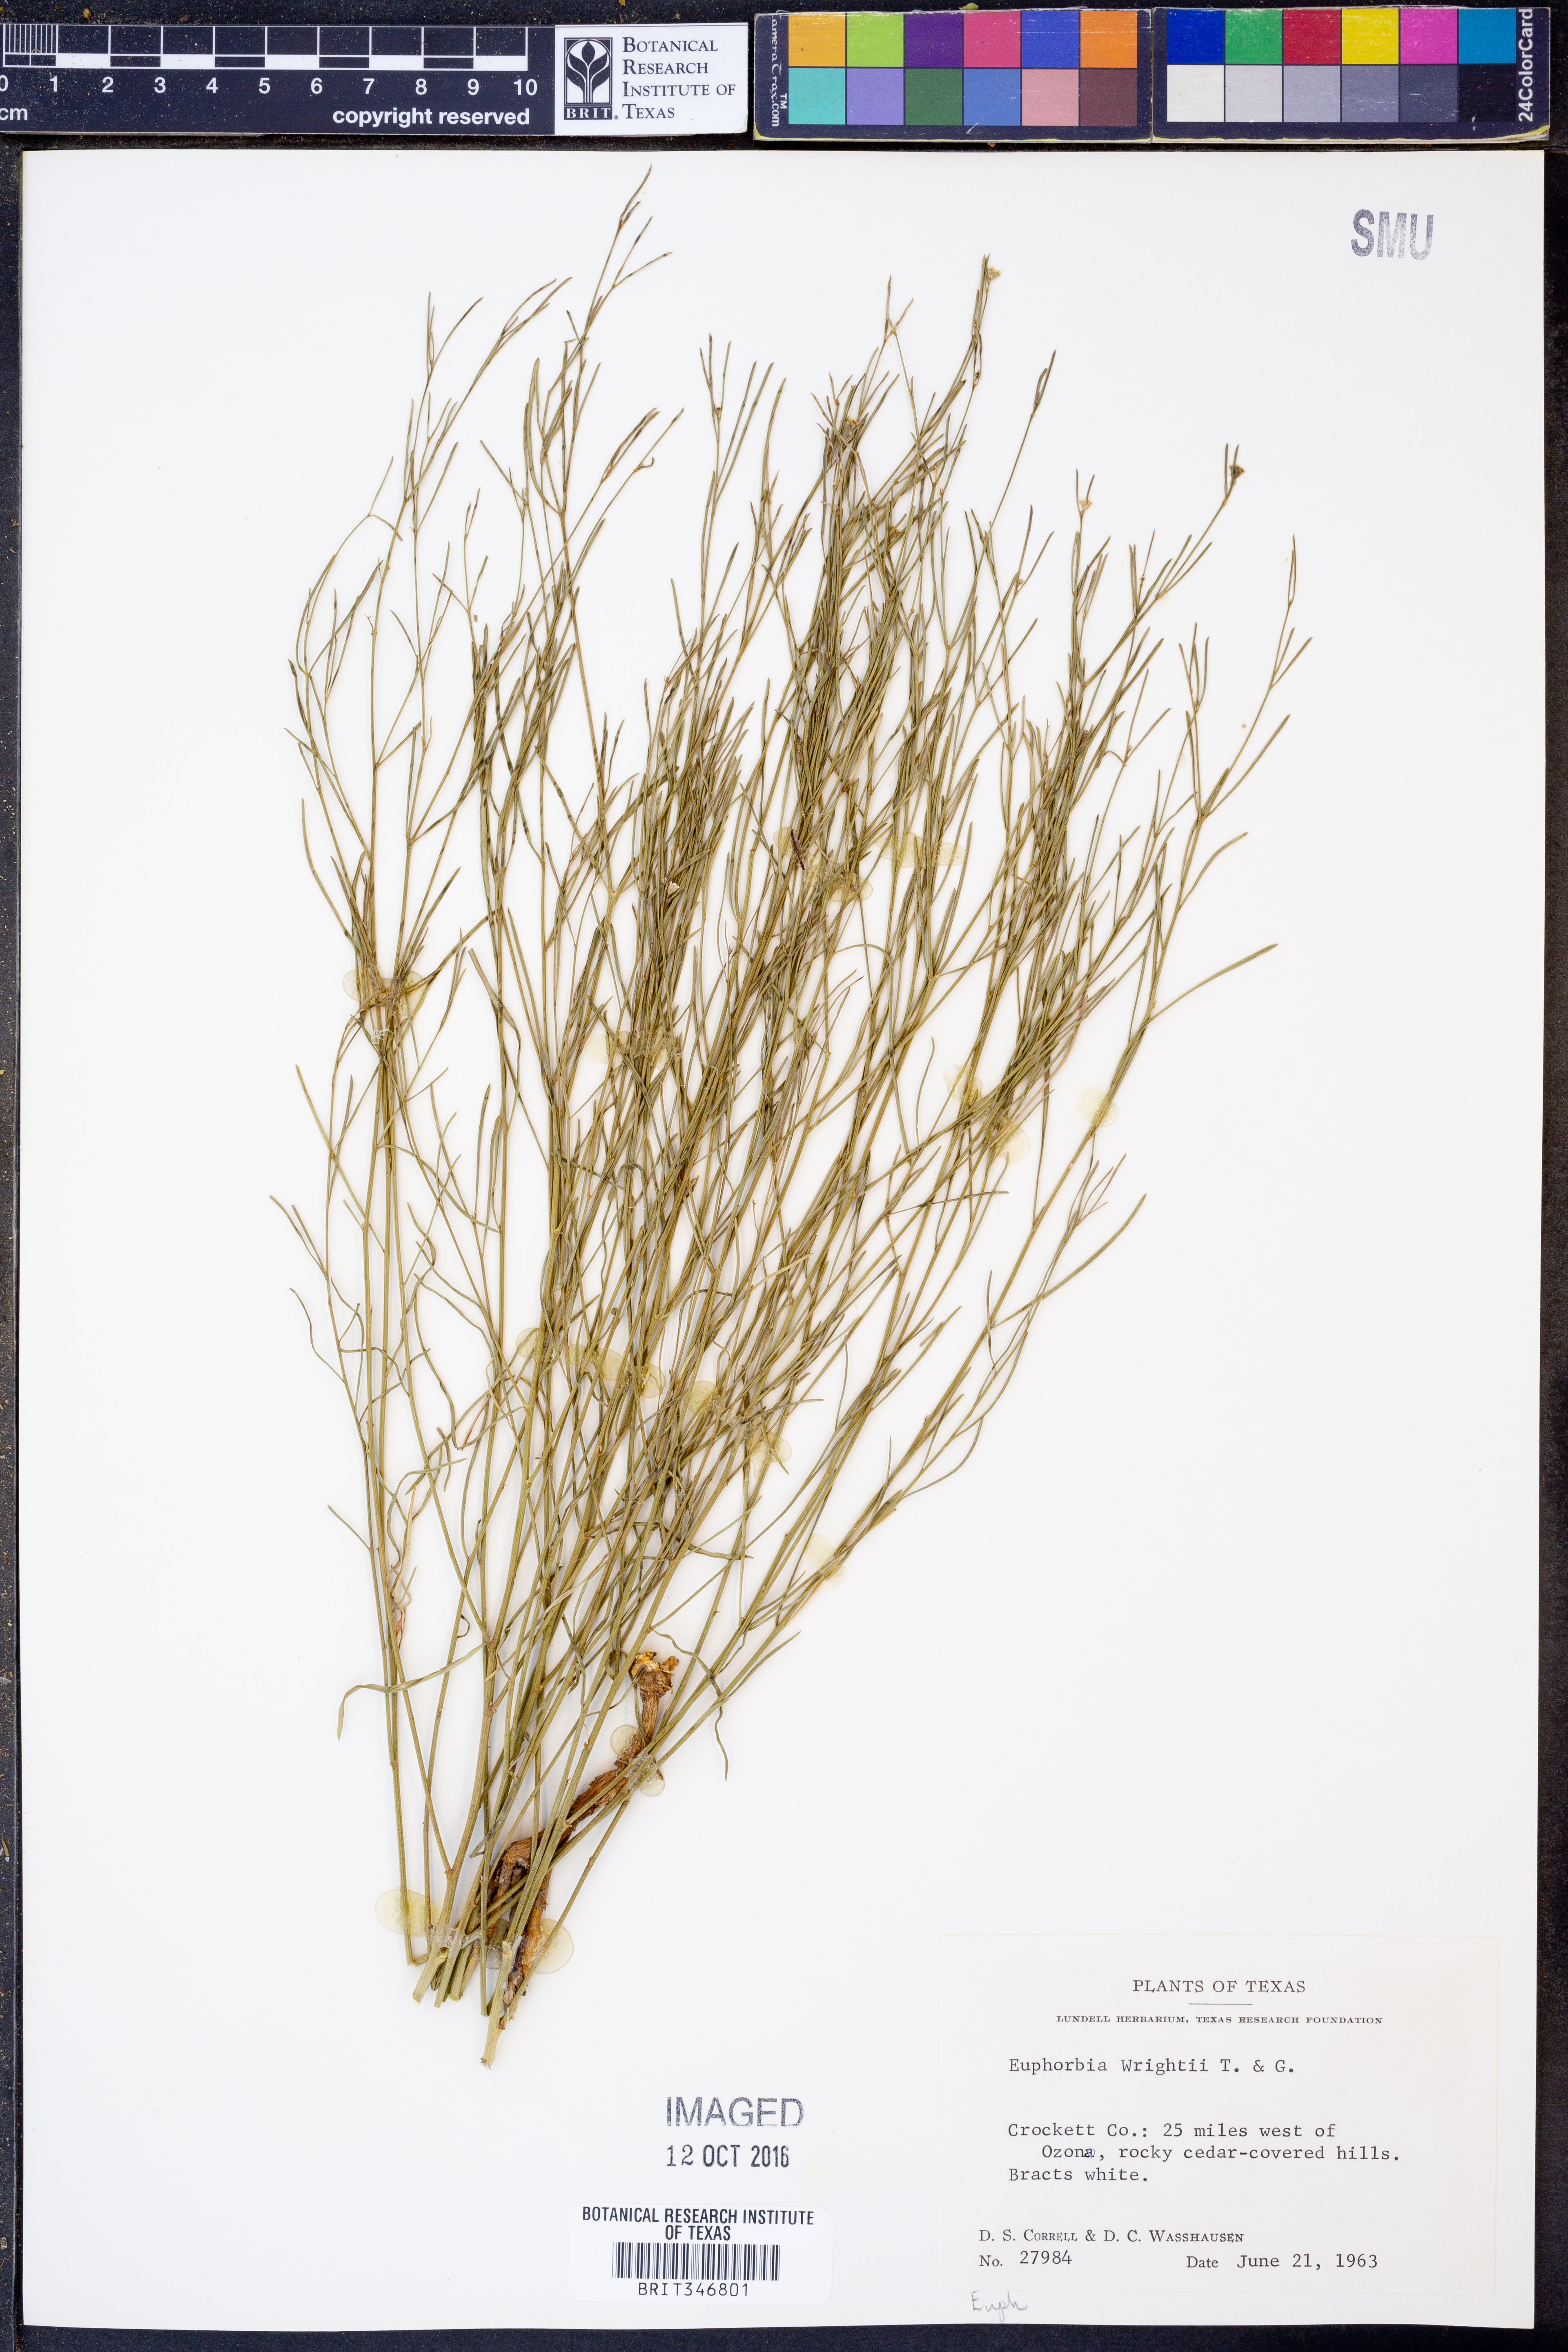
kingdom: Plantae
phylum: Tracheophyta
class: Magnoliopsida
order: Malpighiales
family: Euphorbiaceae
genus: Euphorbia
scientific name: Euphorbia wrightii
